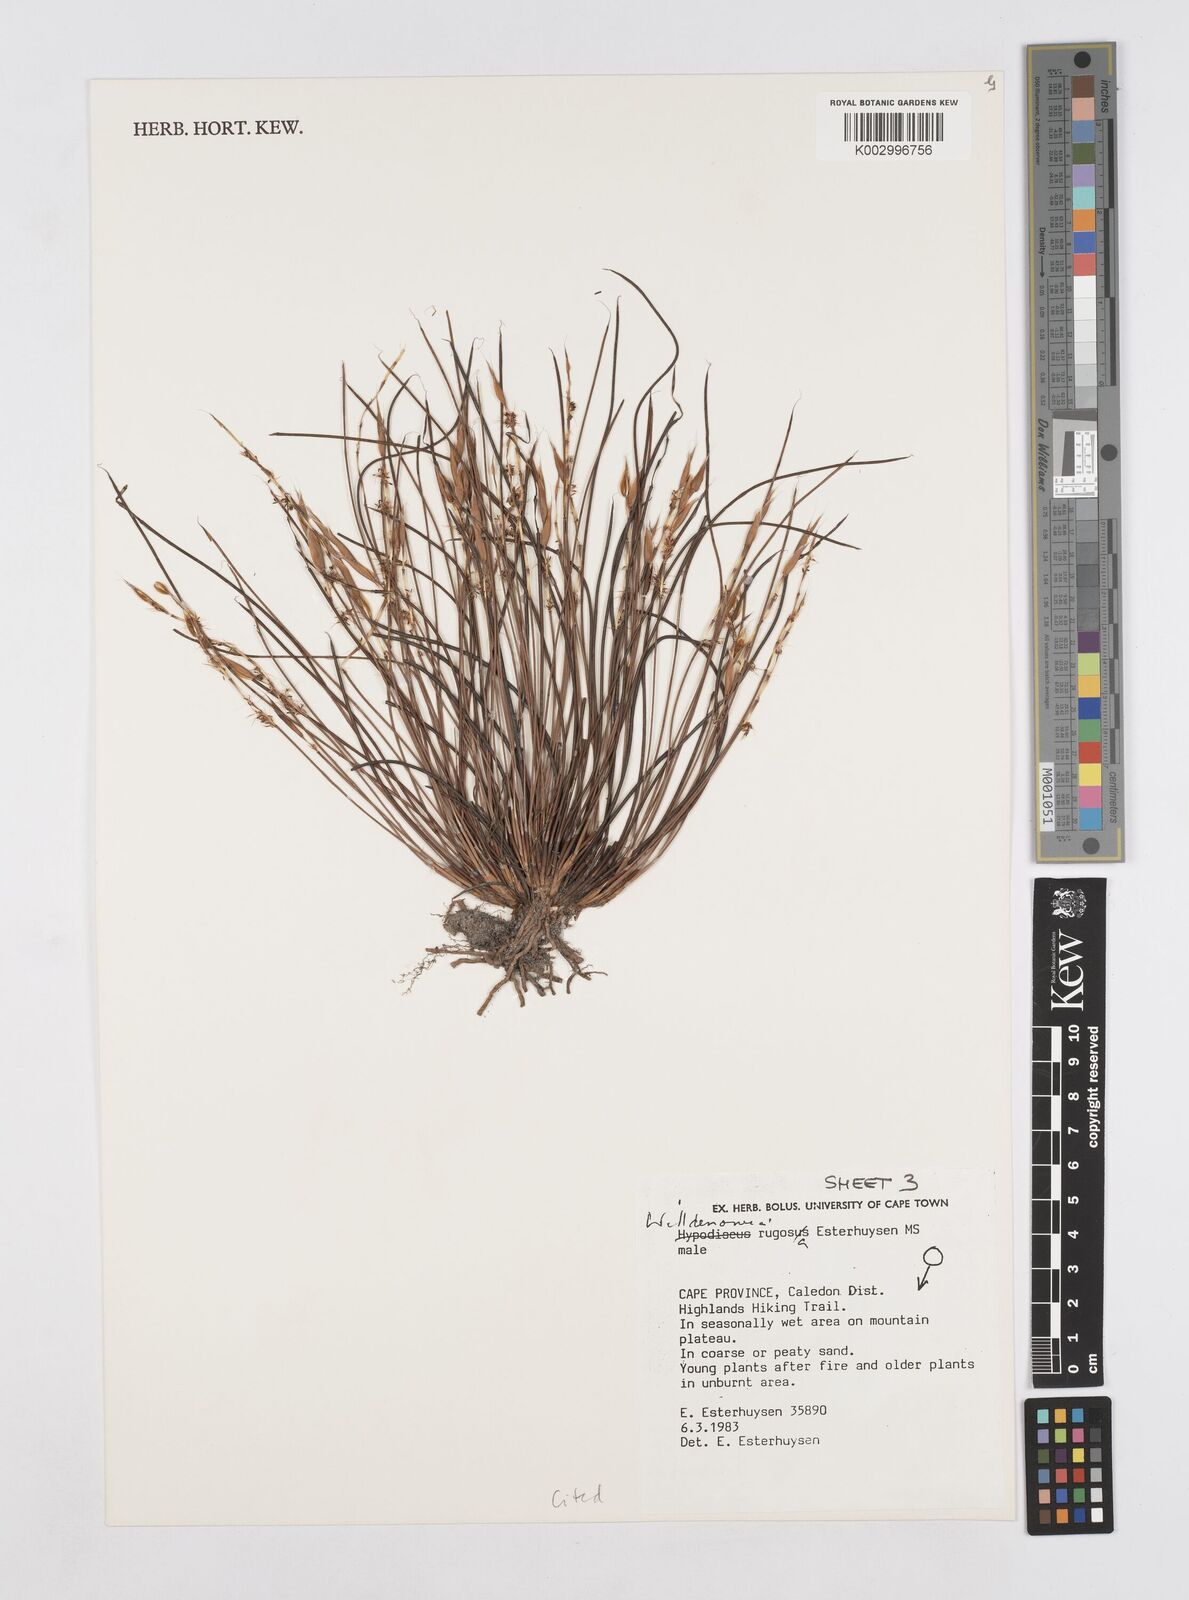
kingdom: Plantae
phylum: Tracheophyta
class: Liliopsida
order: Poales
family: Restionaceae
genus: Willdenowia
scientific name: Willdenowia rugosa
